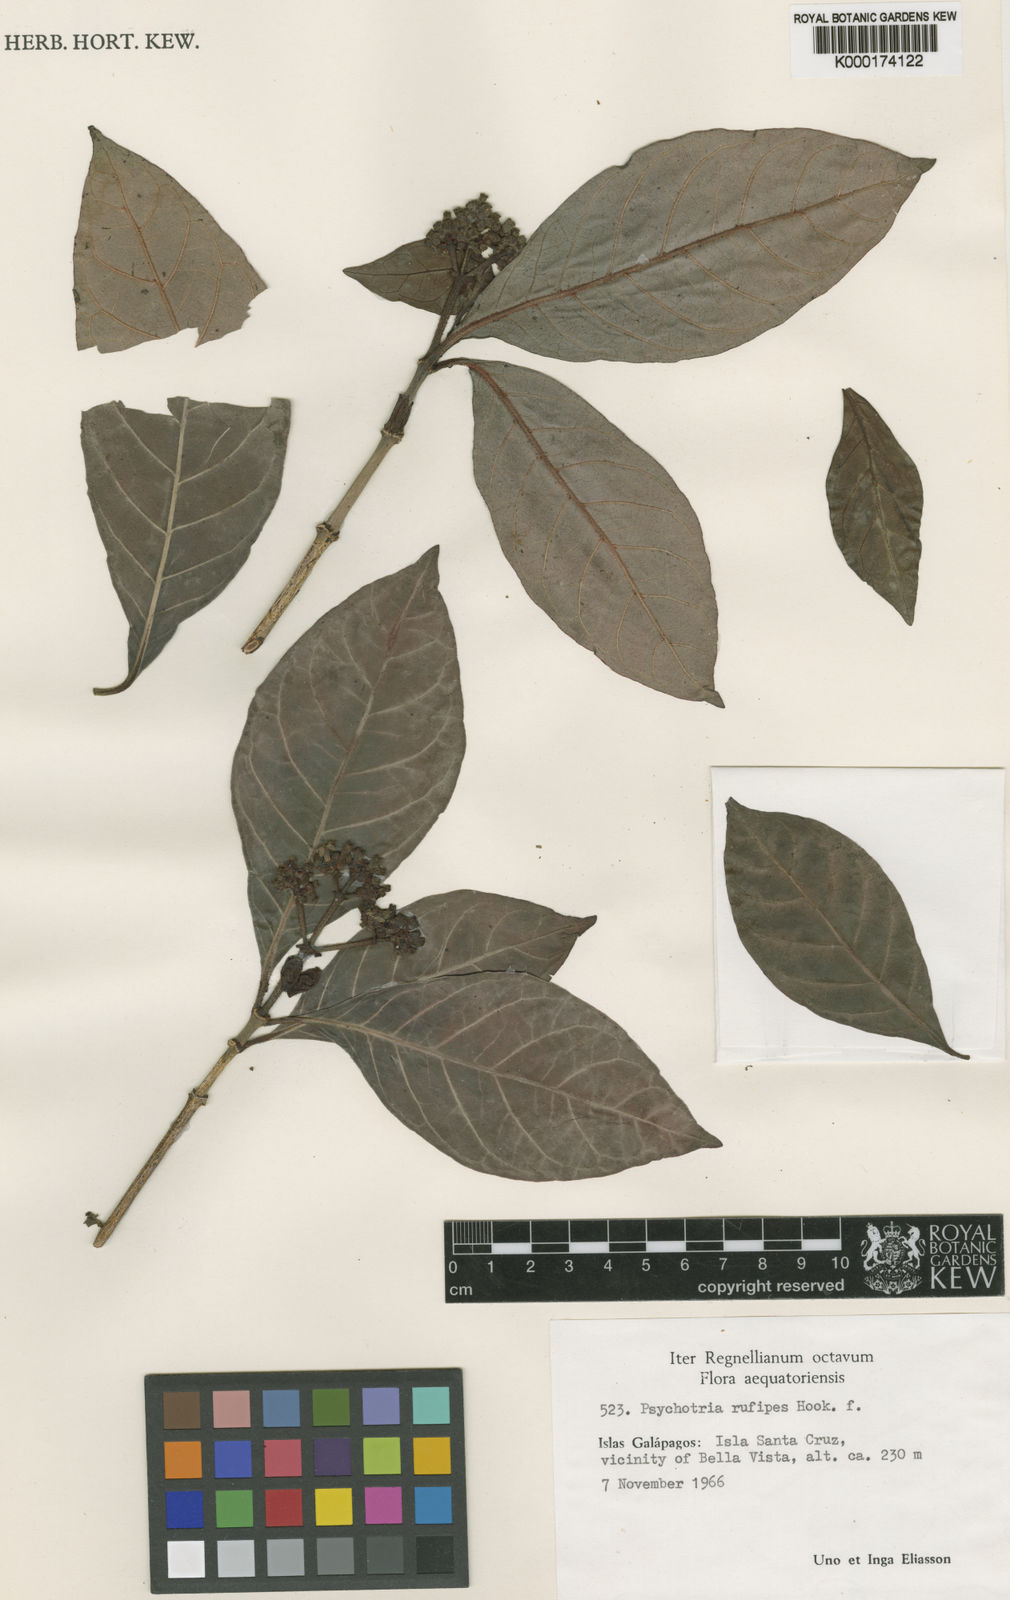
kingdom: Plantae
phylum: Tracheophyta
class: Magnoliopsida
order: Gentianales
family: Rubiaceae
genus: Psychotria
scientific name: Psychotria rufipes
